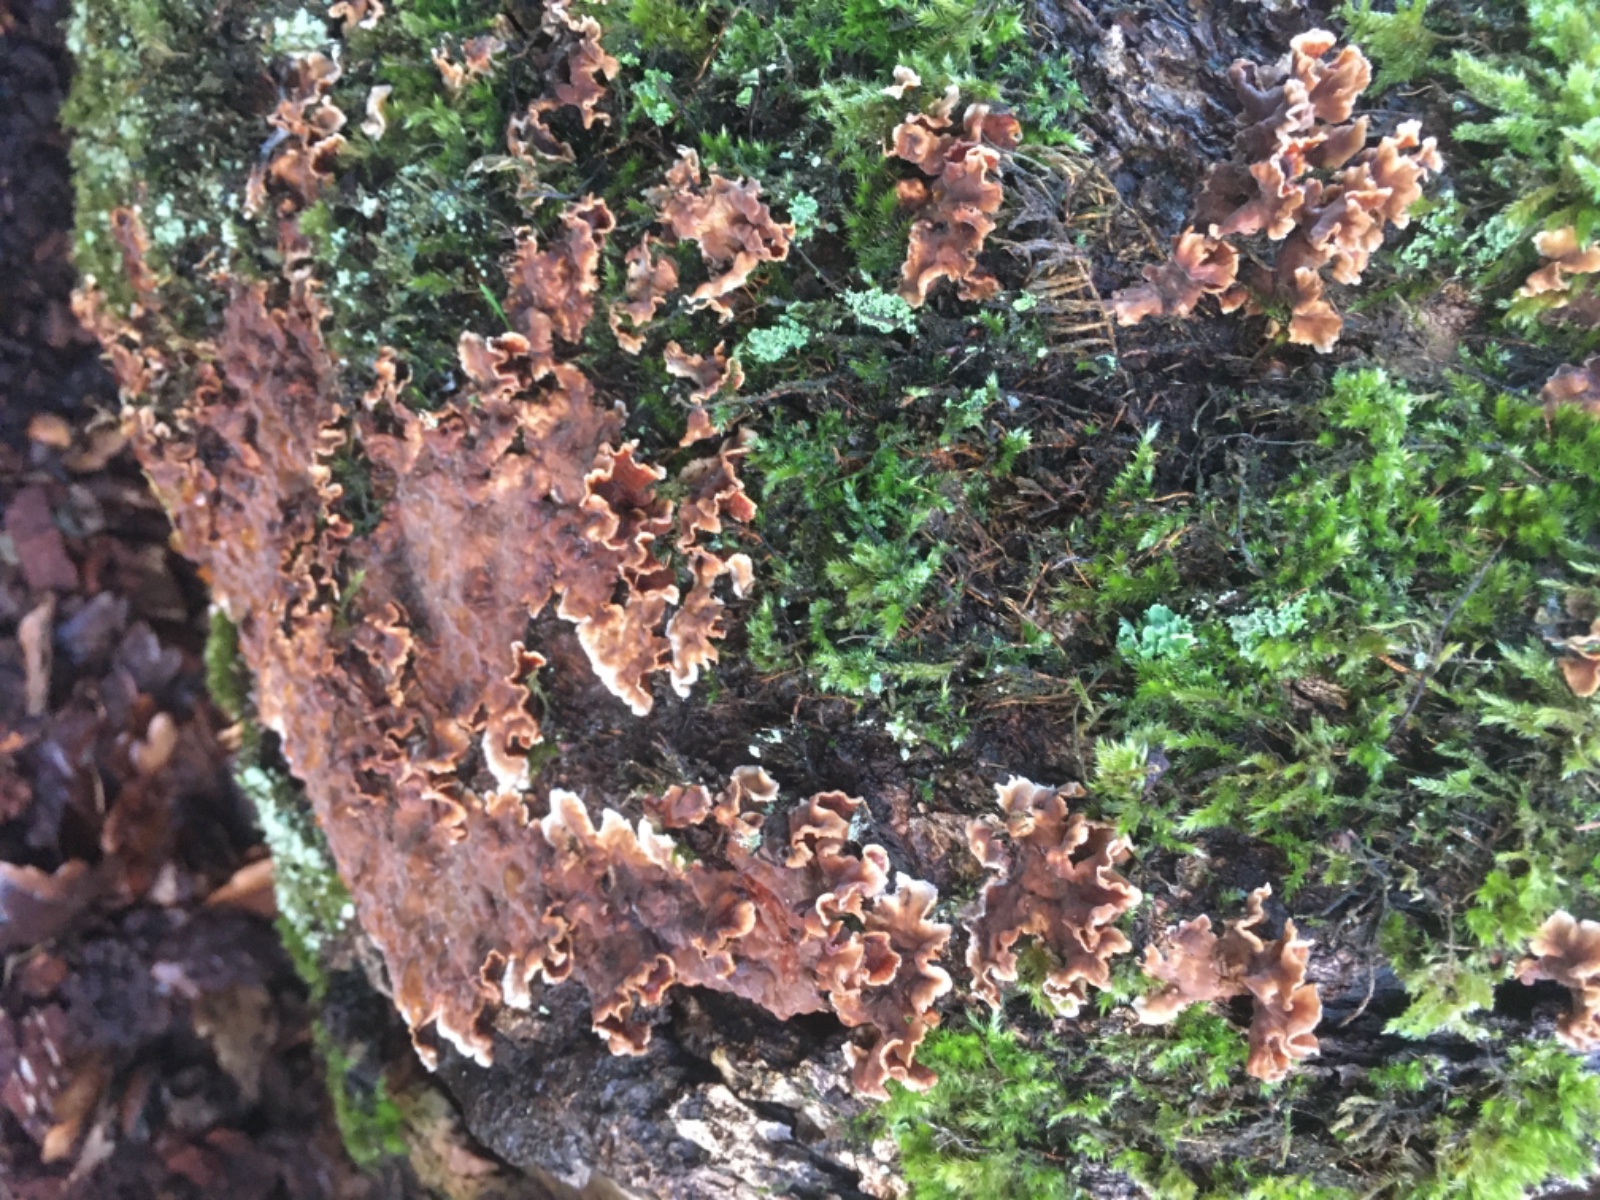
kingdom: Fungi
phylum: Basidiomycota
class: Agaricomycetes
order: Russulales
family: Stereaceae
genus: Stereum
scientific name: Stereum hirsutum
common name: håret lædersvamp
